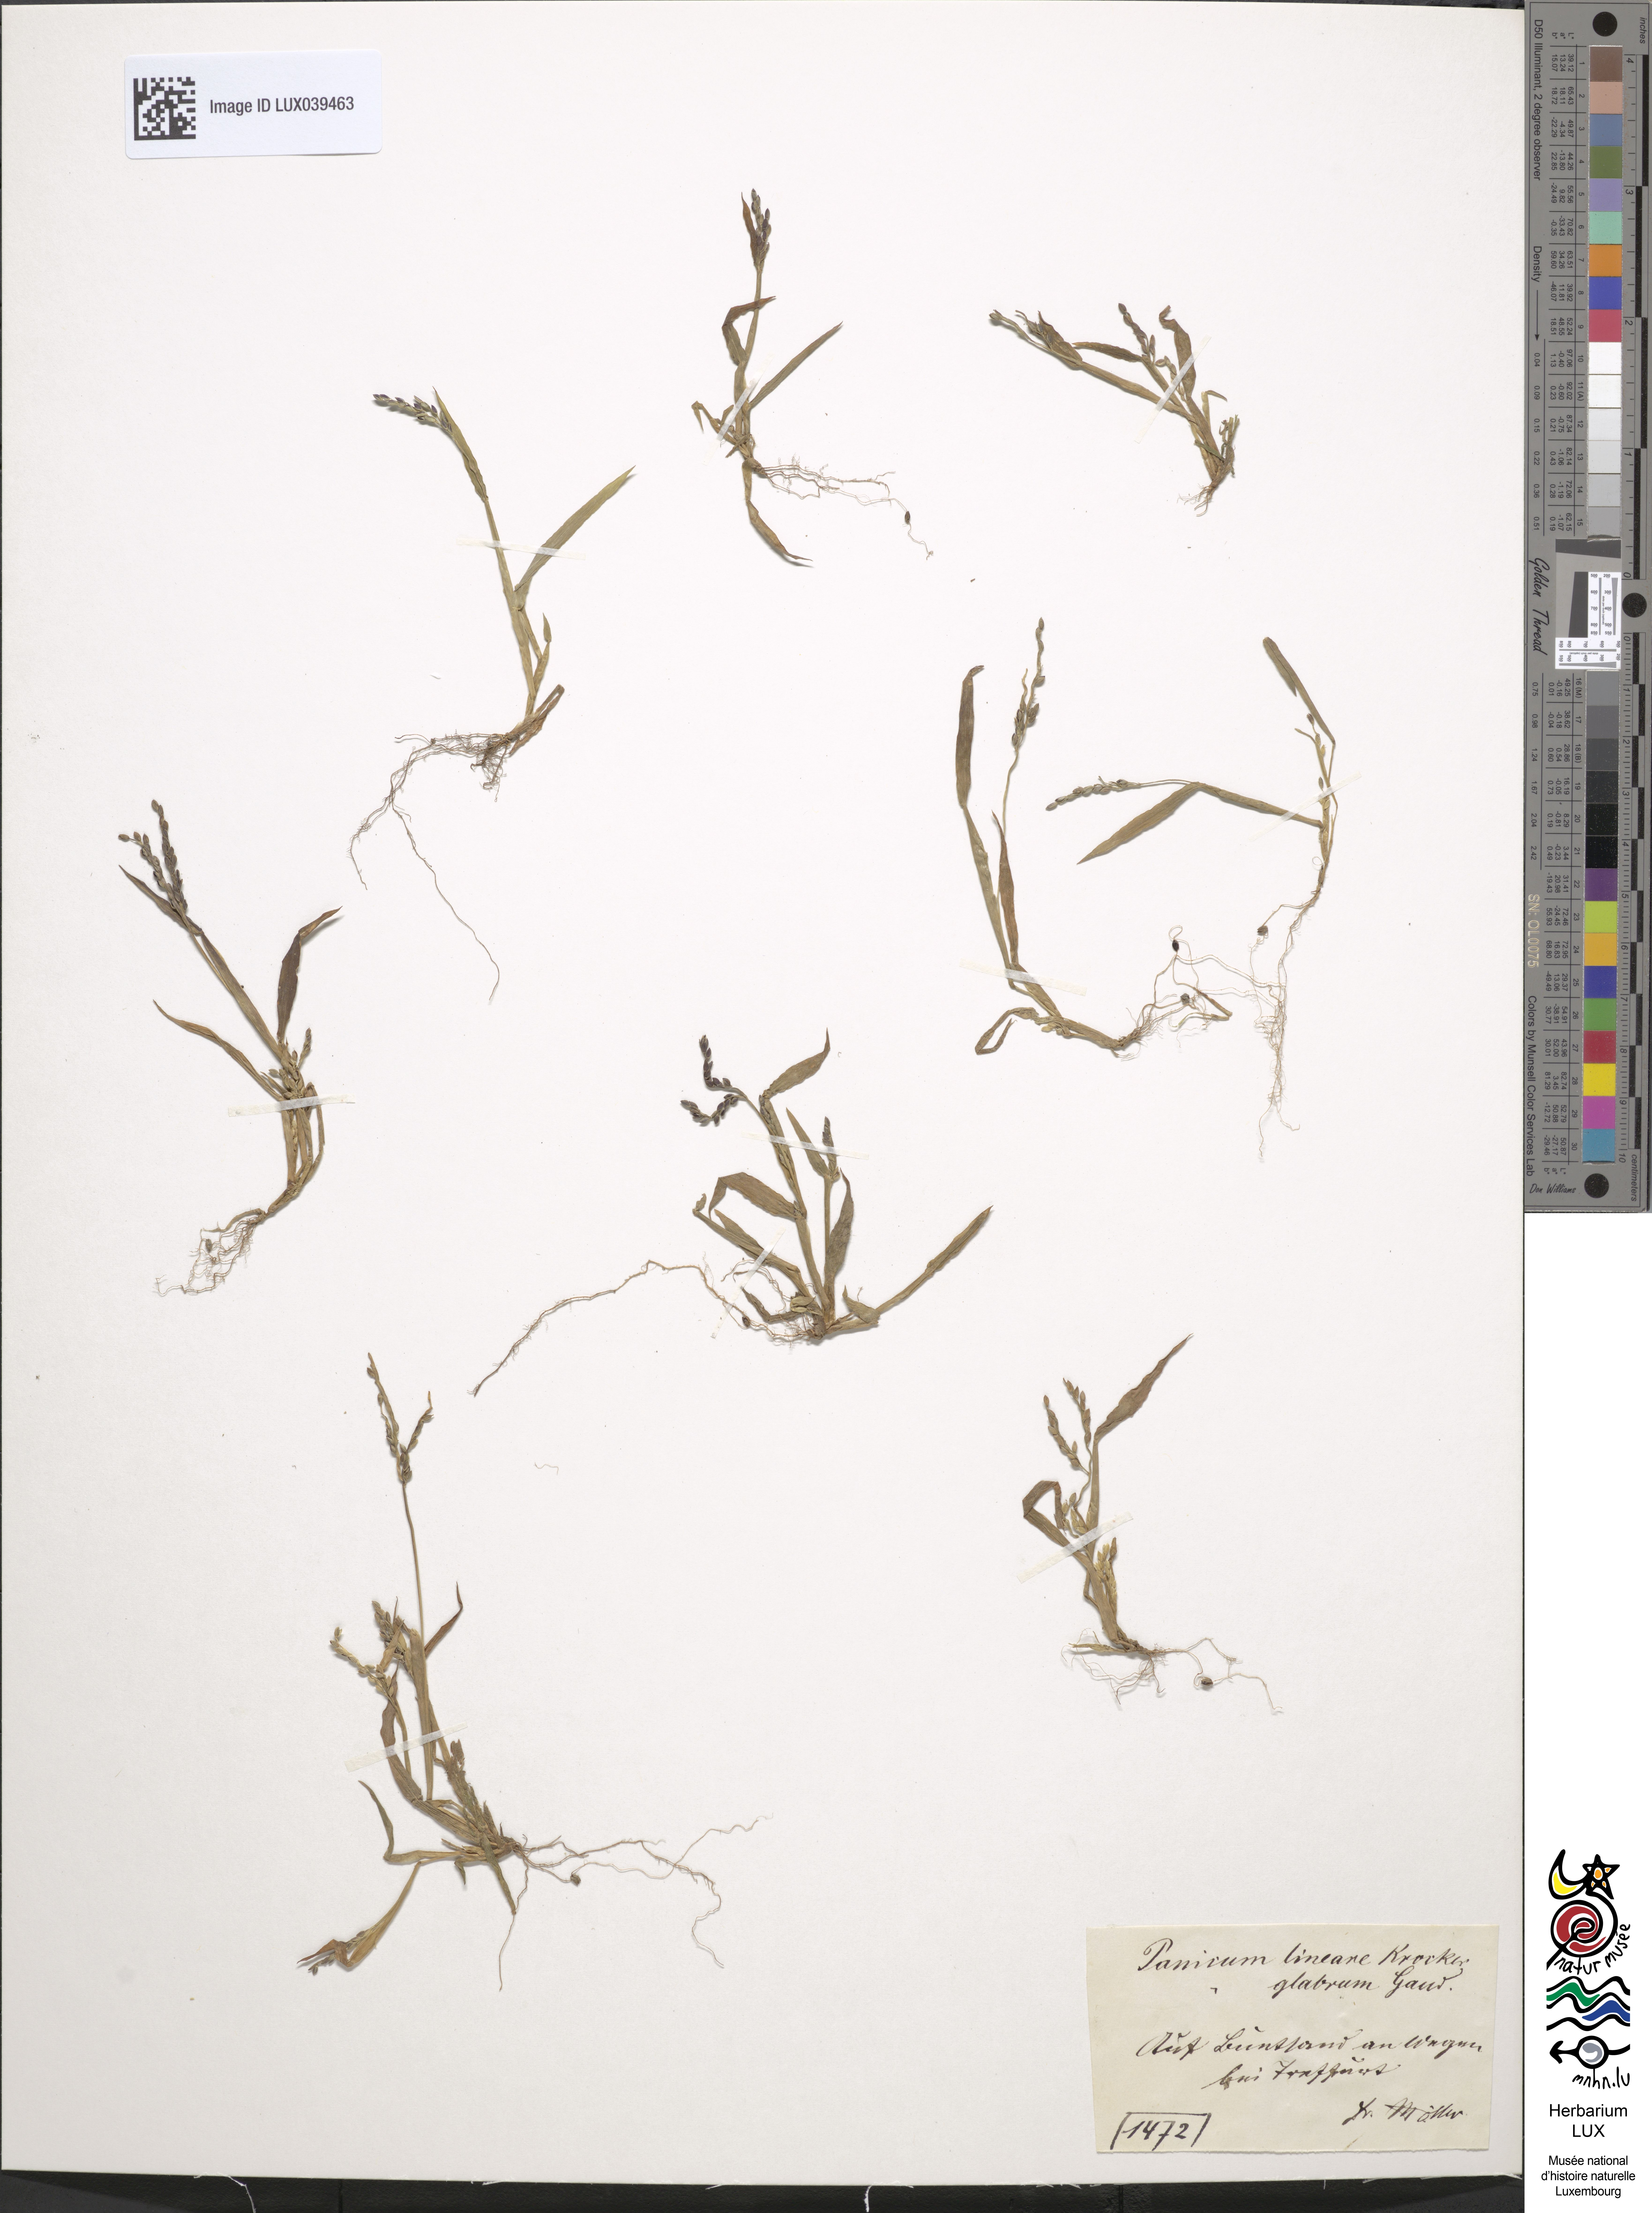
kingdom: Plantae
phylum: Tracheophyta
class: Liliopsida
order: Poales
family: Poaceae
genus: Digitaria
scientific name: Digitaria ischaemum
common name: Smooth crabgrass
